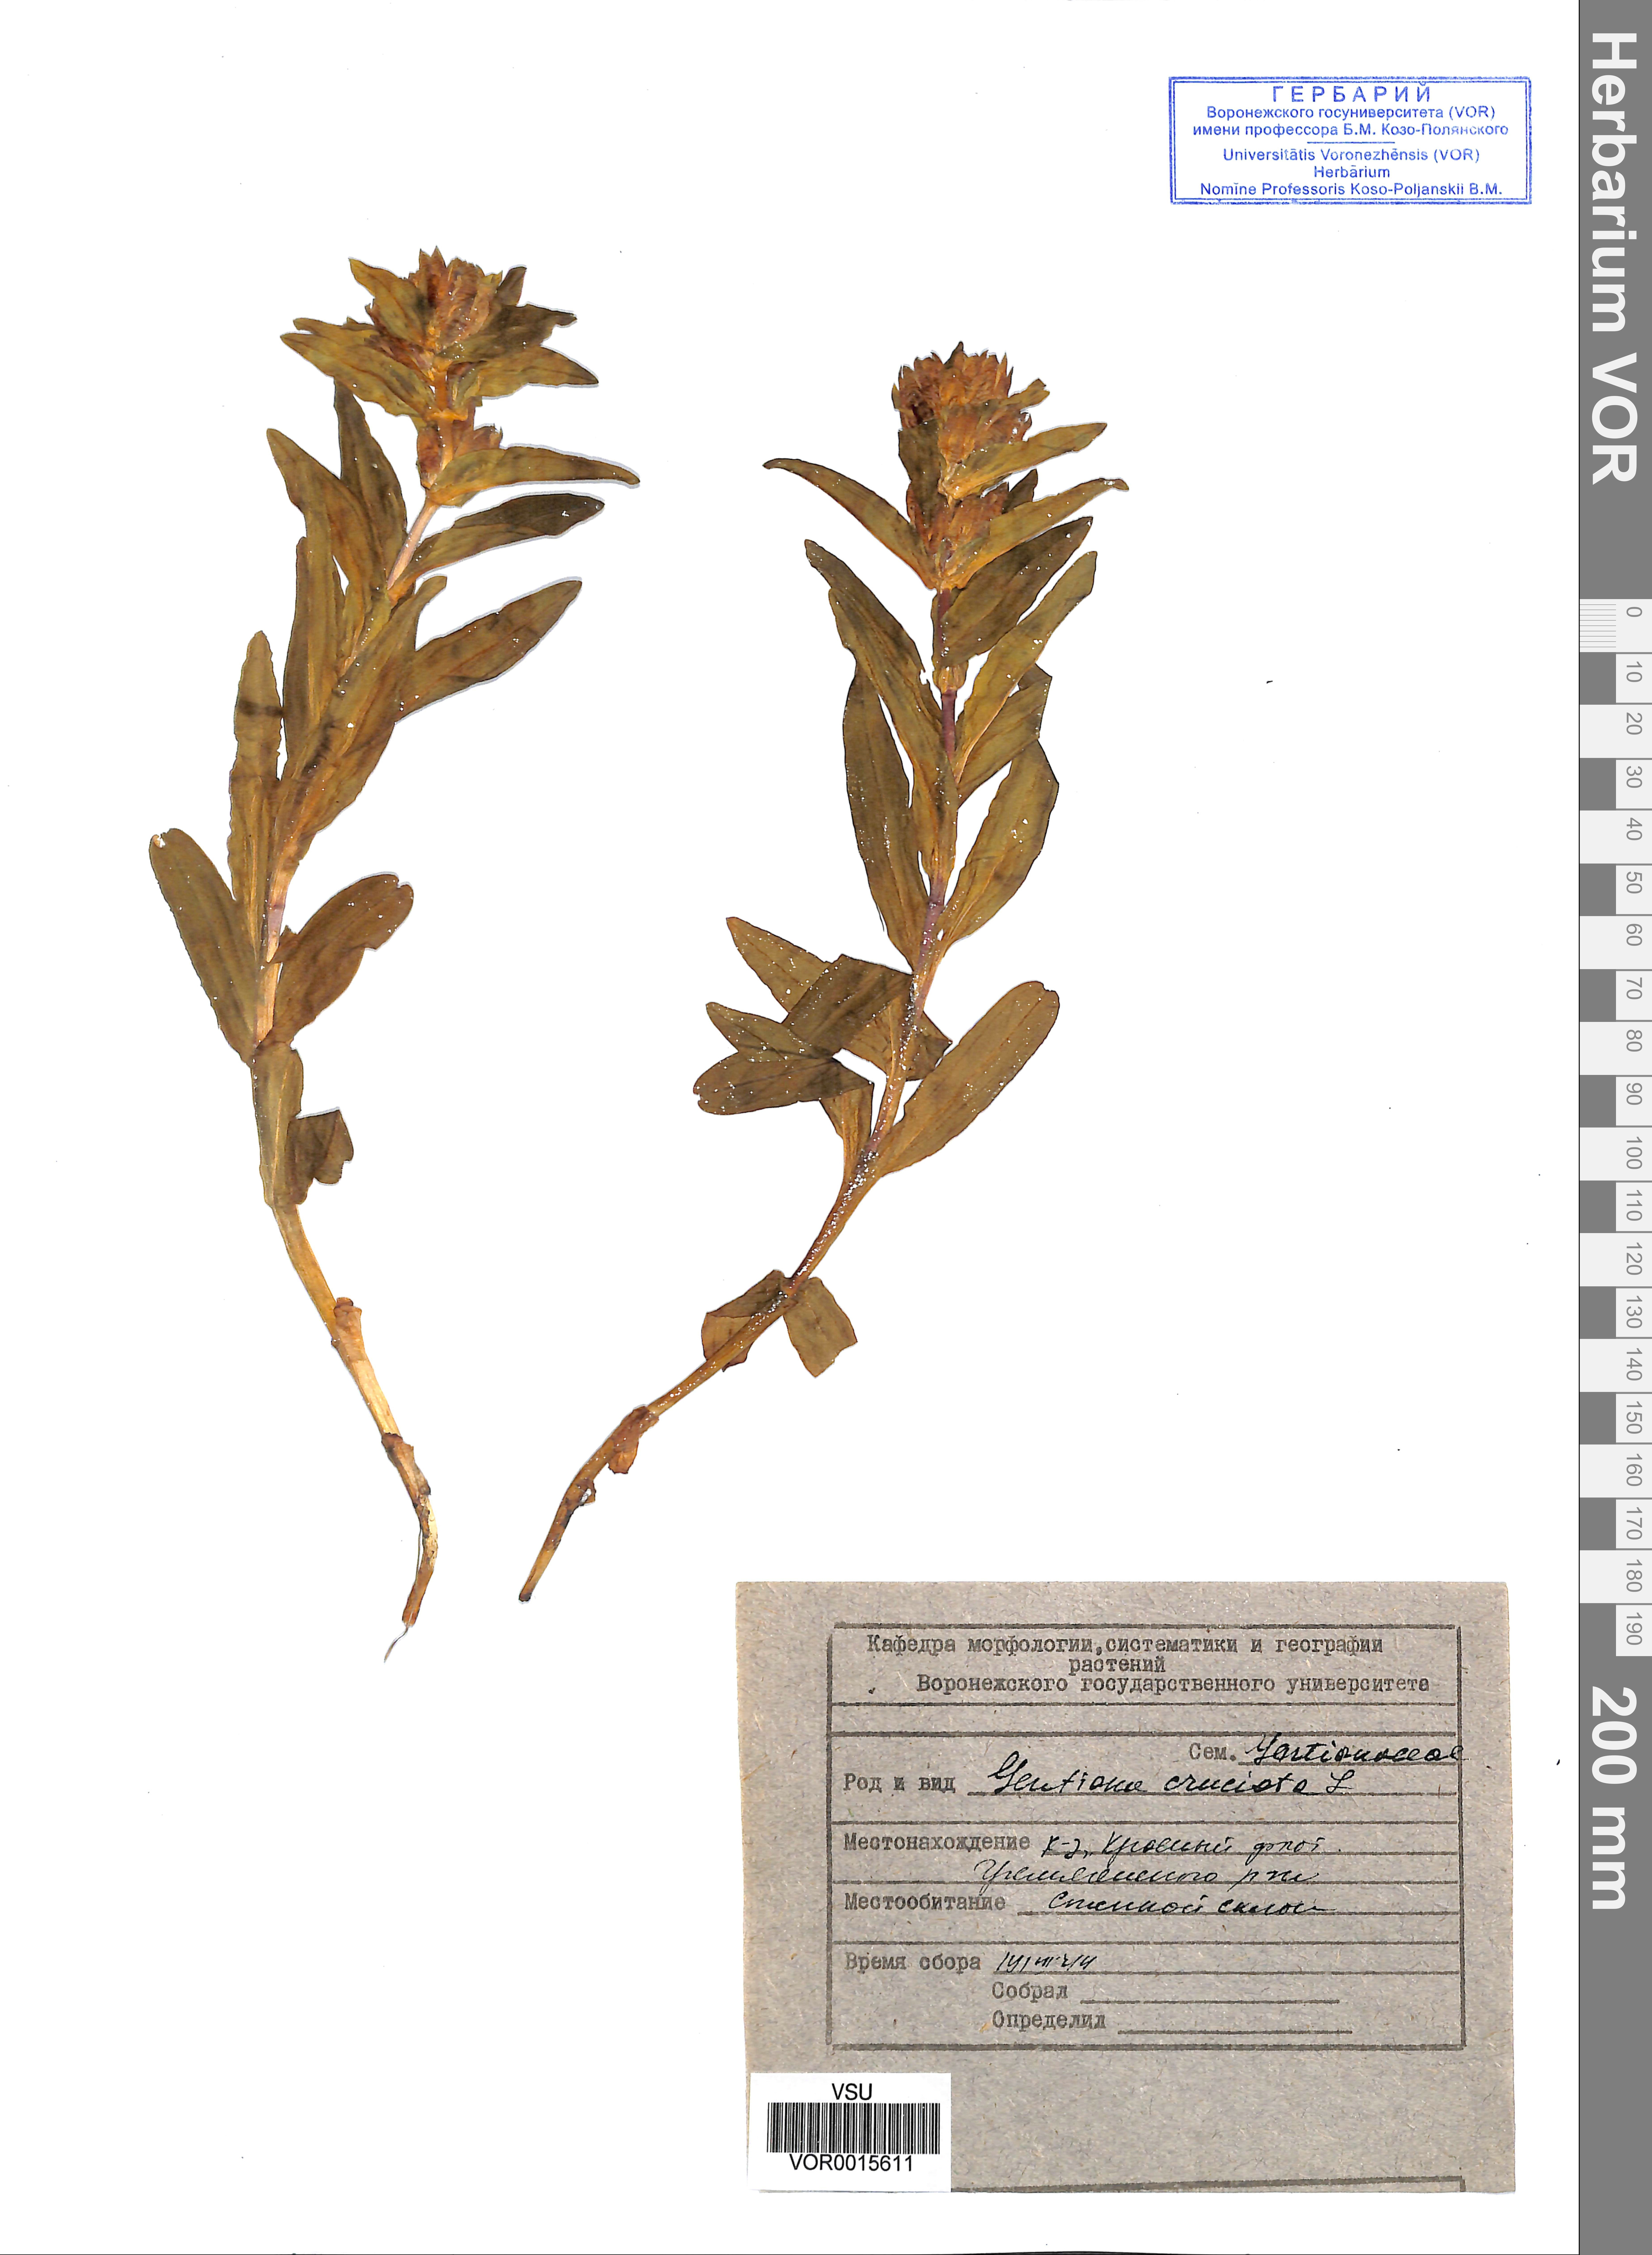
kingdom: Plantae
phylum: Tracheophyta
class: Magnoliopsida
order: Gentianales
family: Gentianaceae
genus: Gentiana
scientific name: Gentiana cruciata
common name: Cross gentian
